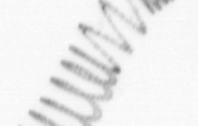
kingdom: Chromista
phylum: Ochrophyta
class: Bacillariophyceae
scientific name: Bacillariophyceae
